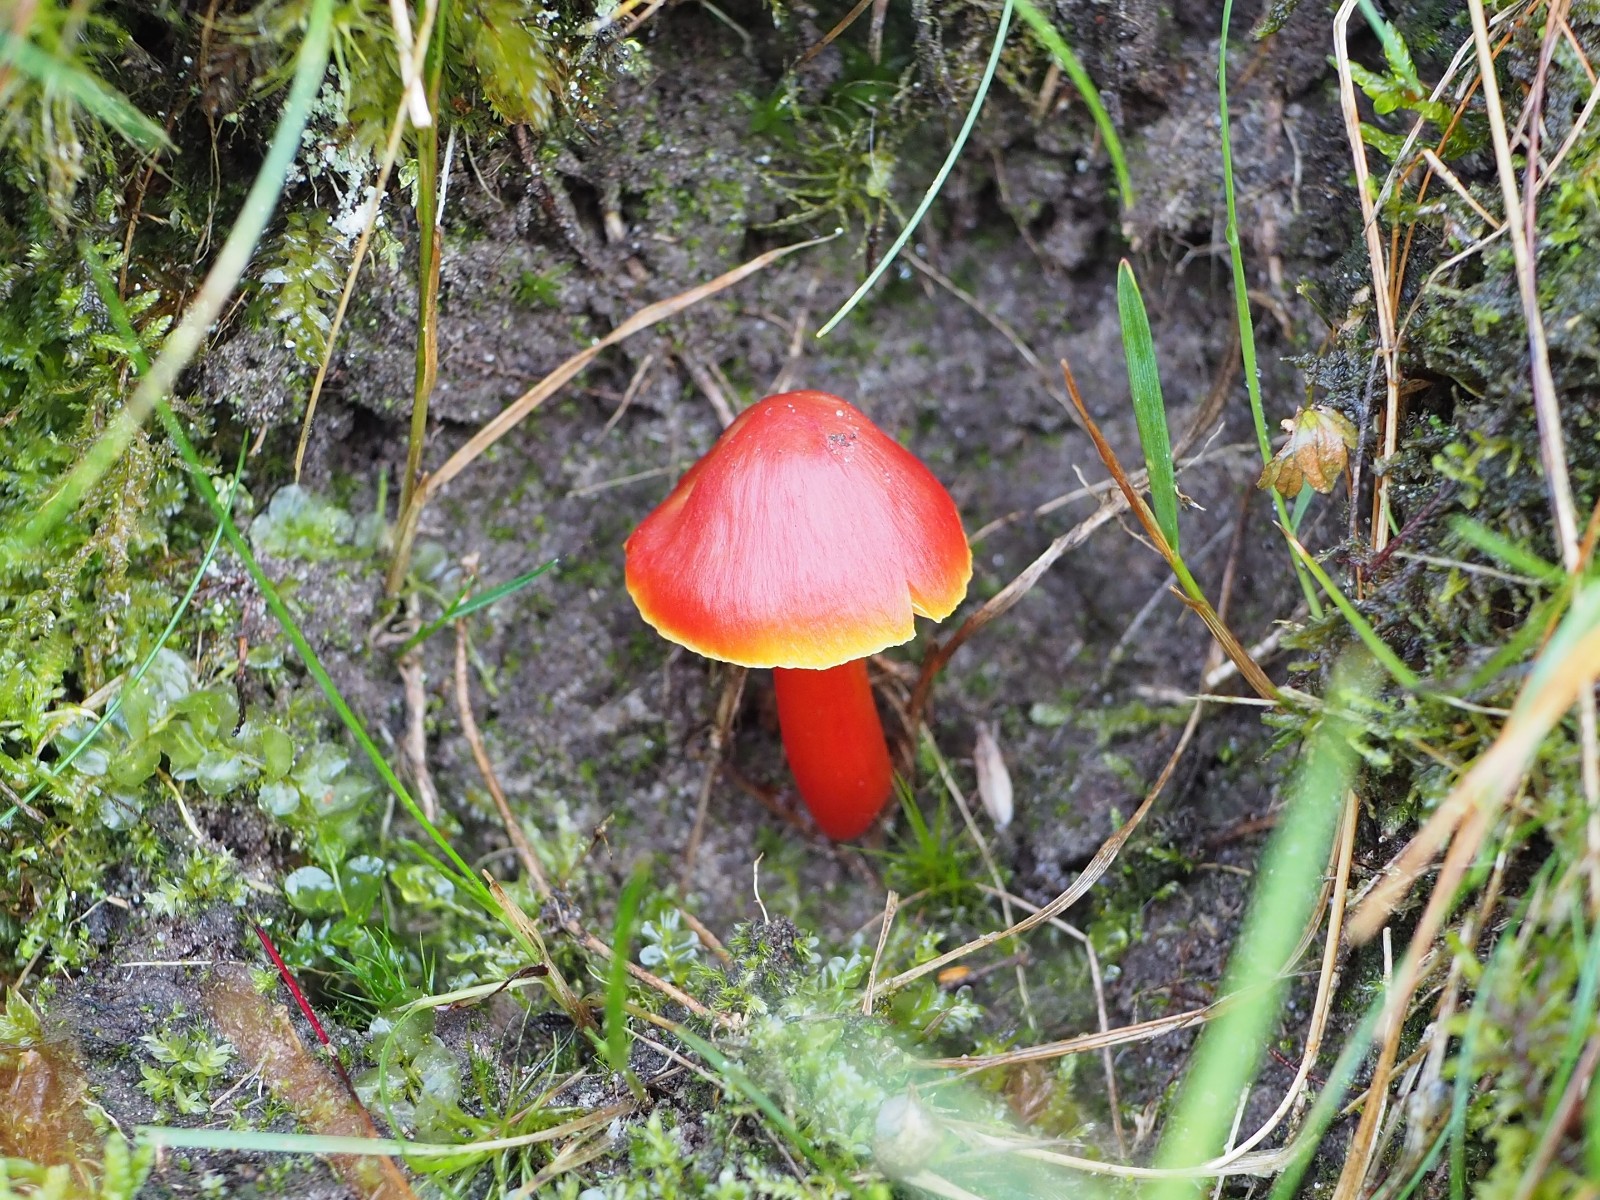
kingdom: Fungi
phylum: Basidiomycota
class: Agaricomycetes
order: Agaricales
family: Hygrophoraceae
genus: Hygrocybe
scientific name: Hygrocybe splendidissima
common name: knaldrød vokshat
